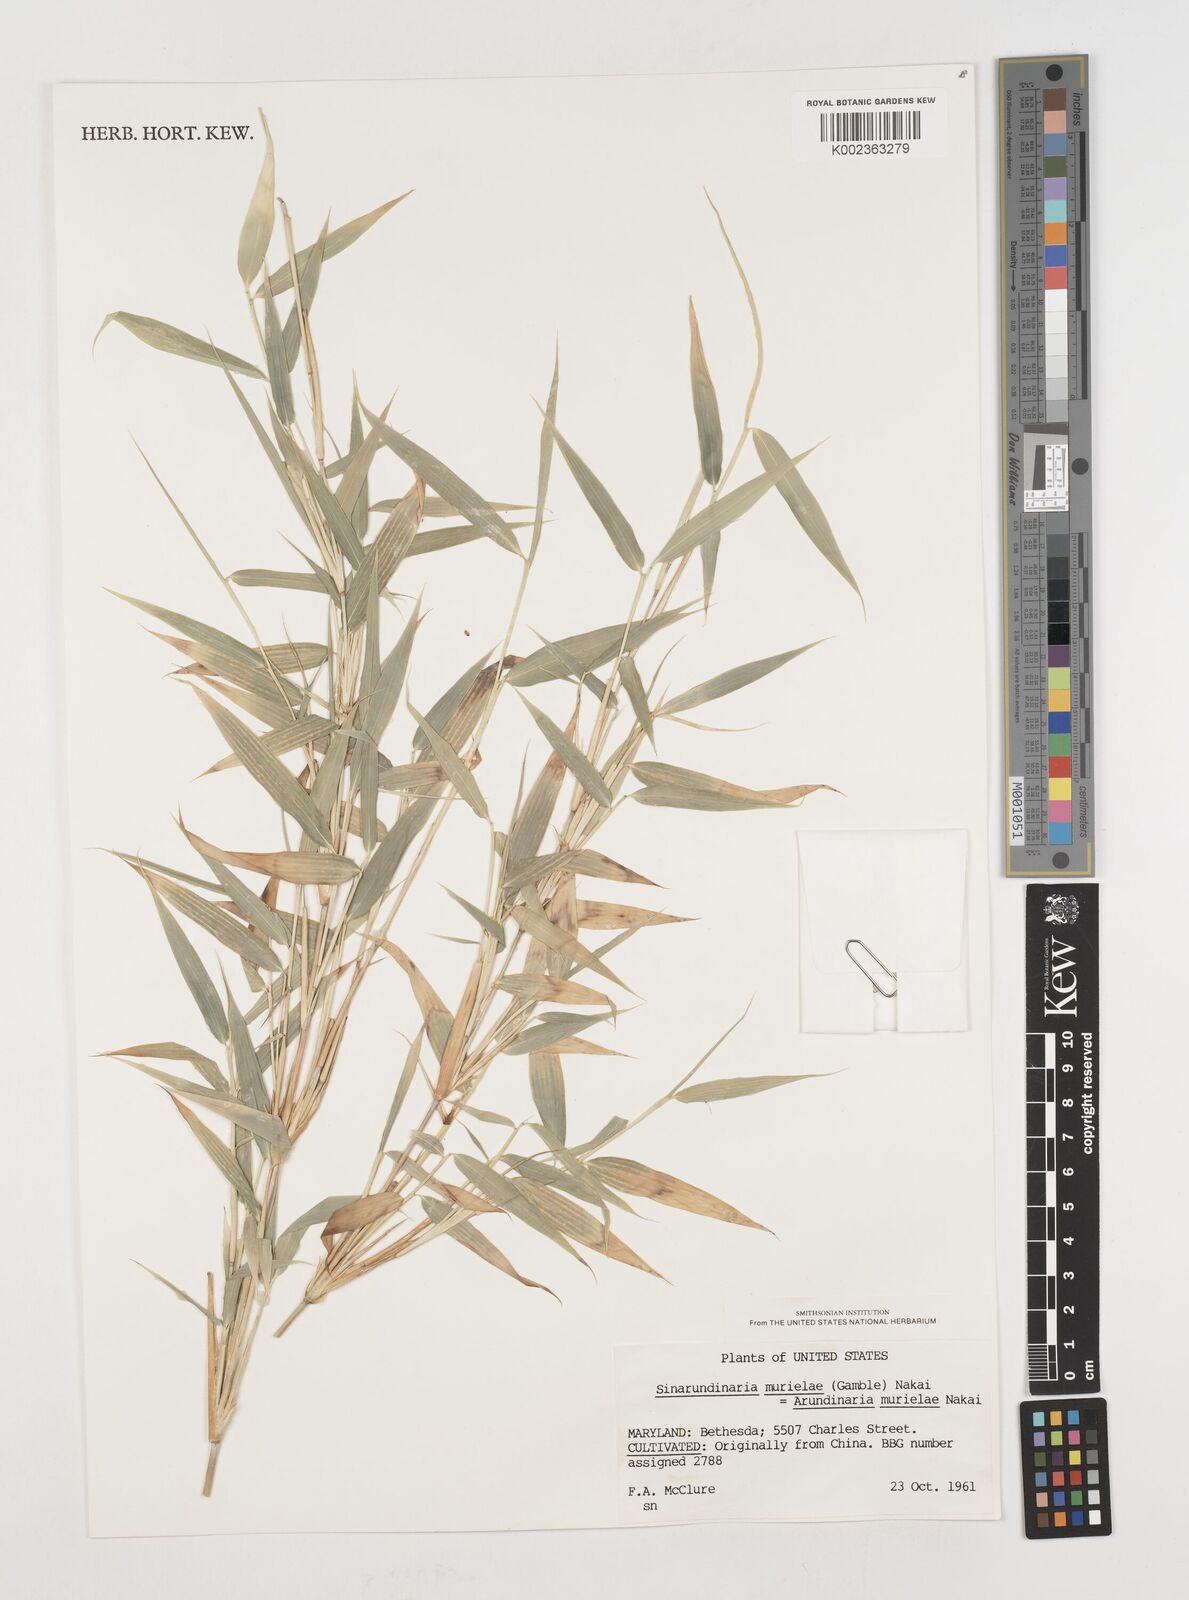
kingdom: Plantae
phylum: Tracheophyta
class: Liliopsida
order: Poales
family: Poaceae
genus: Fargesia
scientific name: Fargesia murielae
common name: Umbrella bamboo
